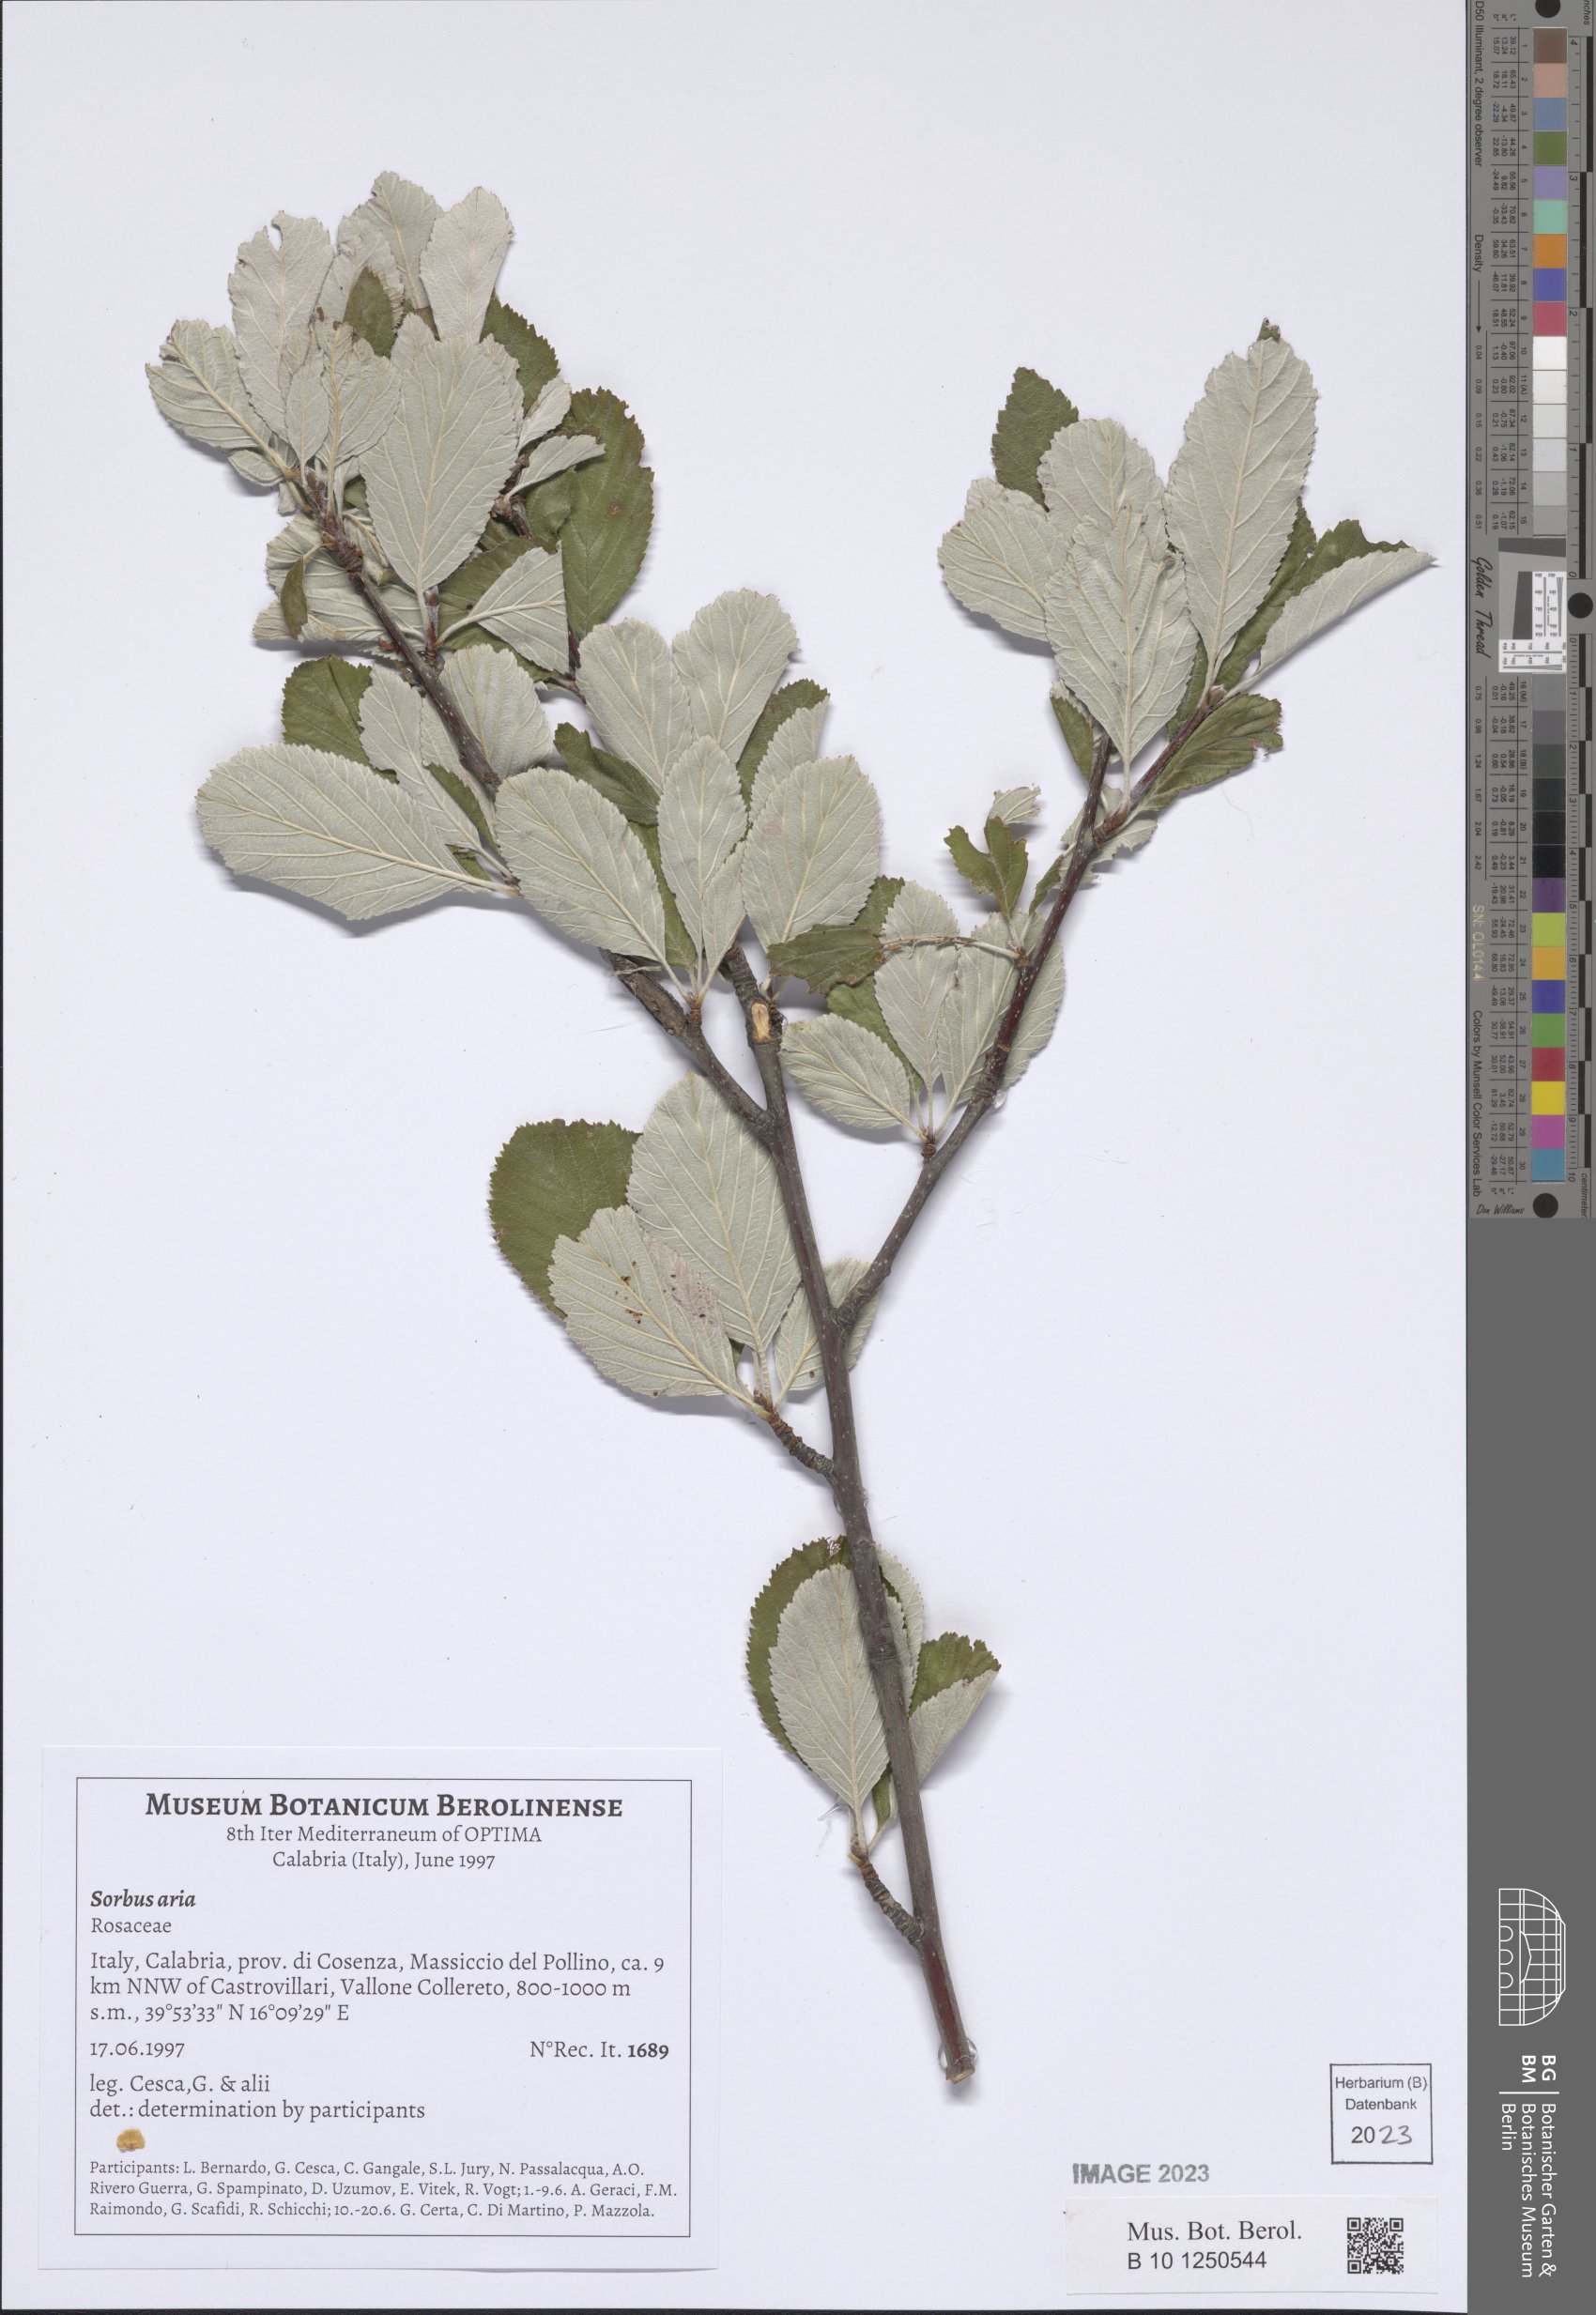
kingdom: Plantae
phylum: Tracheophyta
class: Magnoliopsida
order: Rosales
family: Rosaceae
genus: Aria
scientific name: Aria edulis
